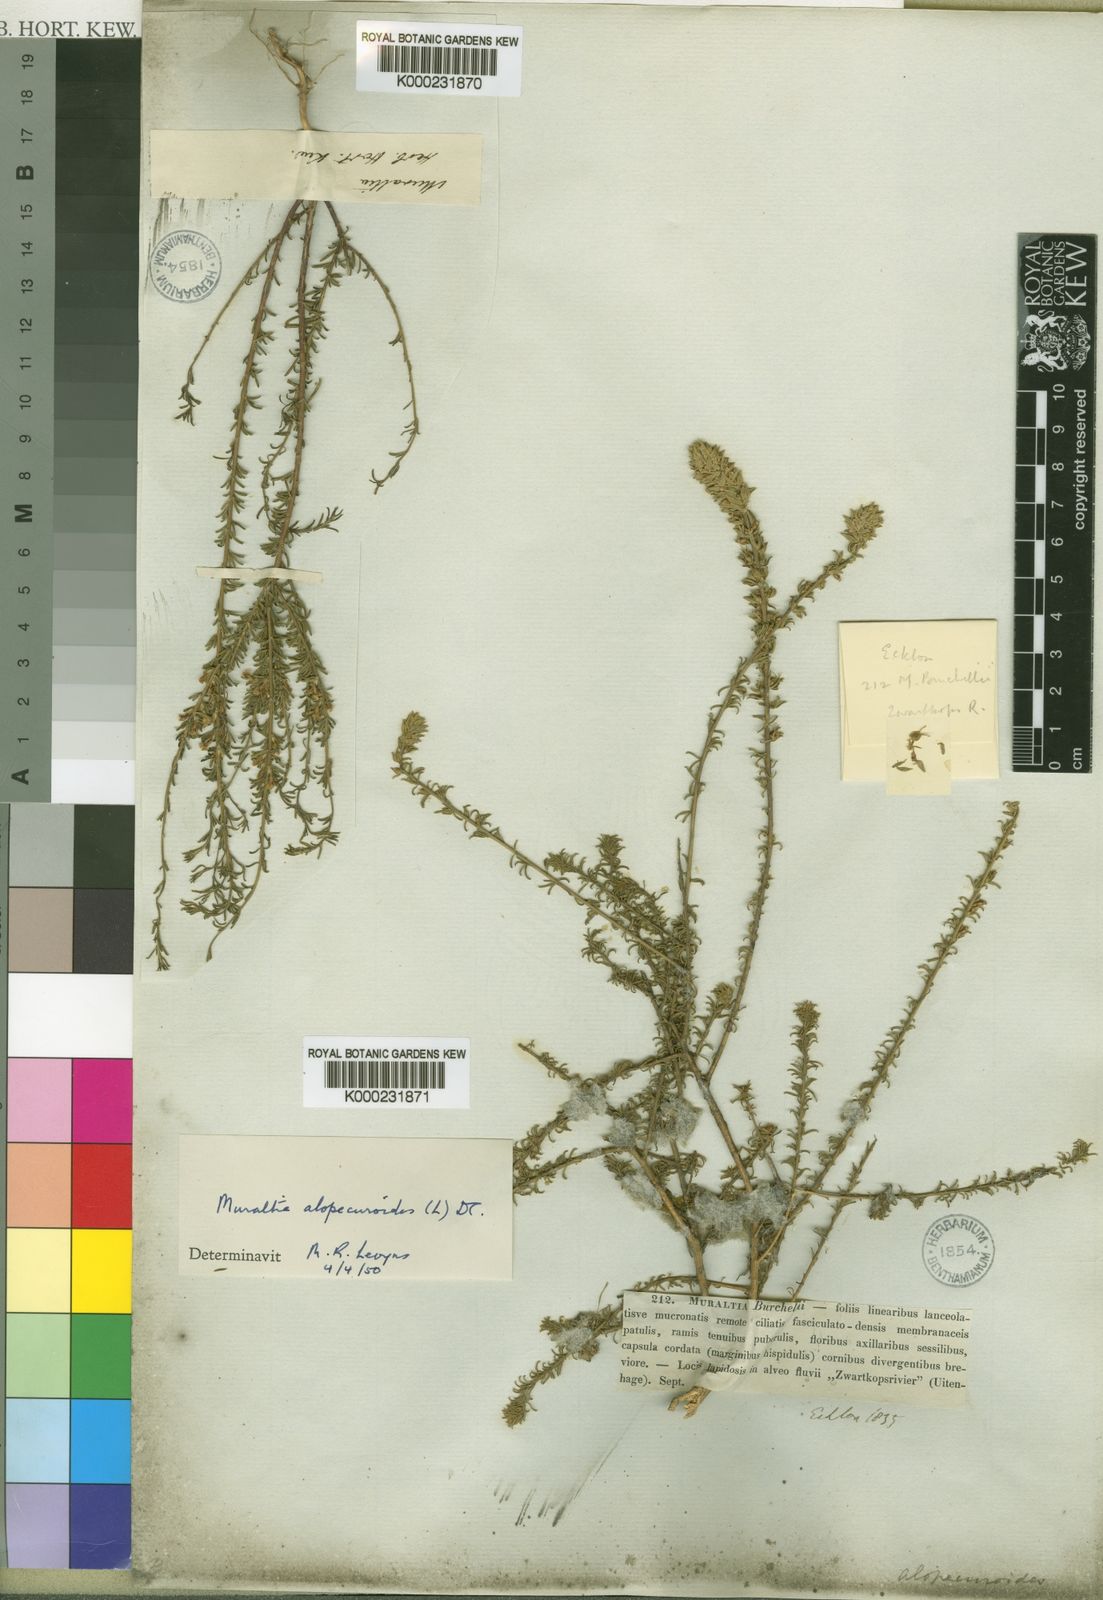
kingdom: Plantae
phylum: Tracheophyta
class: Magnoliopsida
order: Fabales
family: Polygalaceae
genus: Muraltia
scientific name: Muraltia alopecuroides
